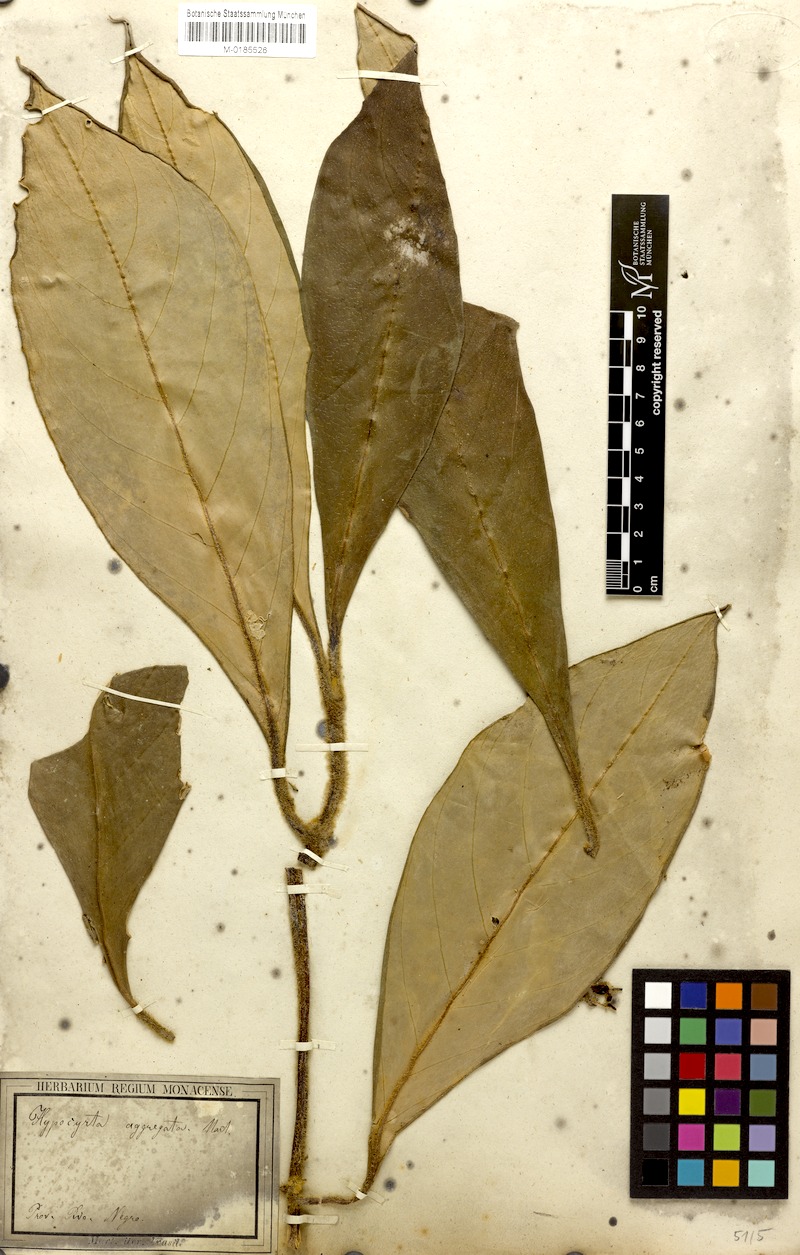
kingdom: Plantae
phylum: Tracheophyta
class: Magnoliopsida
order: Lamiales
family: Gesneriaceae
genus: Besleria
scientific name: Besleria aggregata
